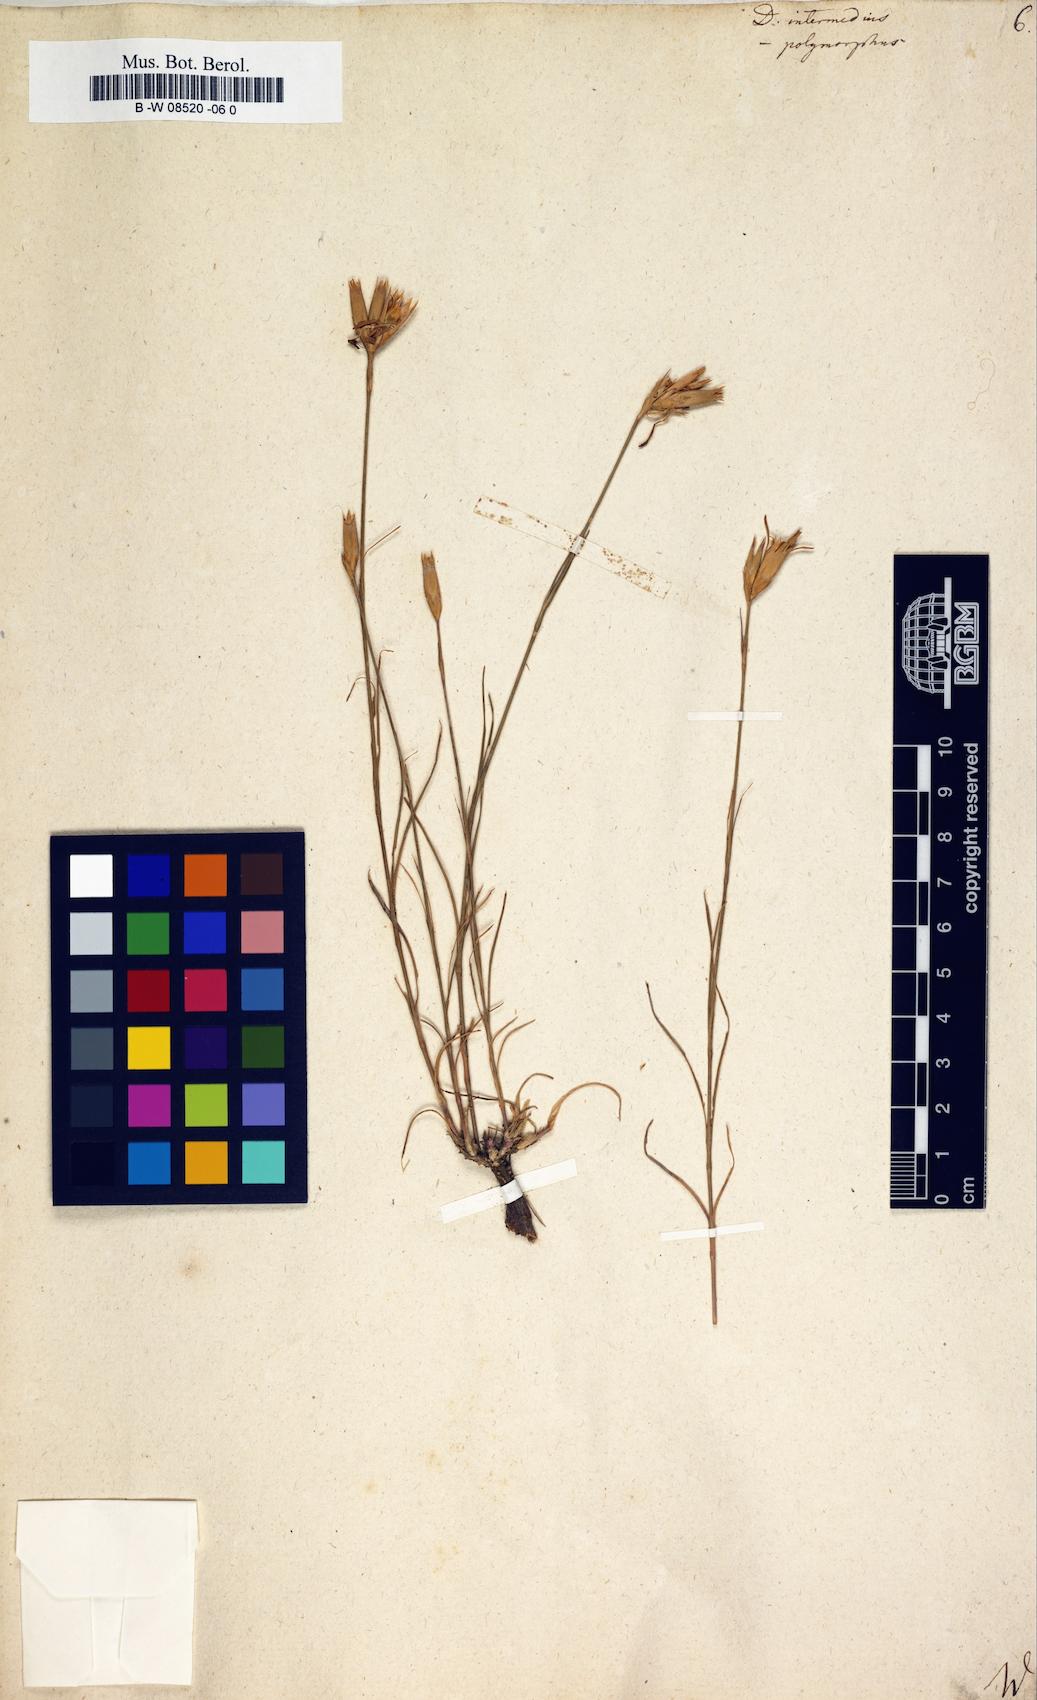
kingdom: Plantae
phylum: Tracheophyta
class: Magnoliopsida
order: Caryophyllales
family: Caryophyllaceae
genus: Dianthus
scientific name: Dianthus
